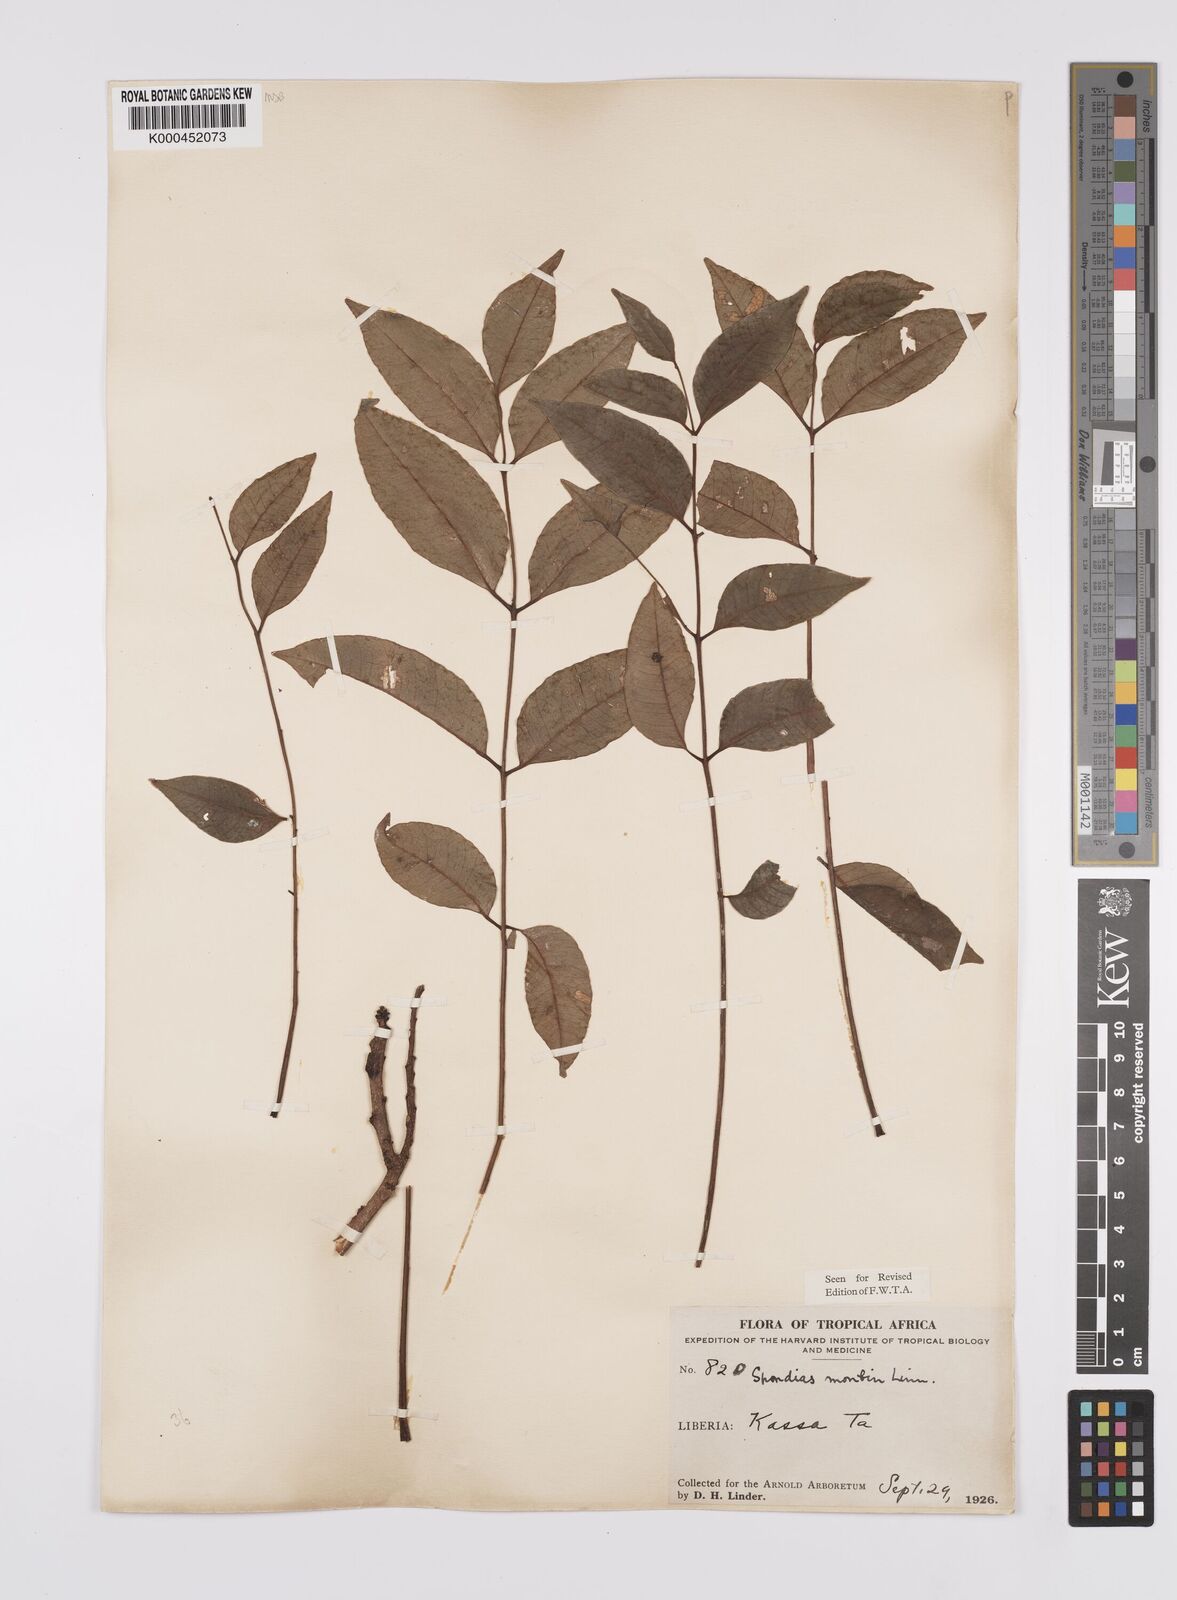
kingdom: Plantae
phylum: Tracheophyta
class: Magnoliopsida
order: Sapindales
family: Anacardiaceae
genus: Spondias
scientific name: Spondias mombin
